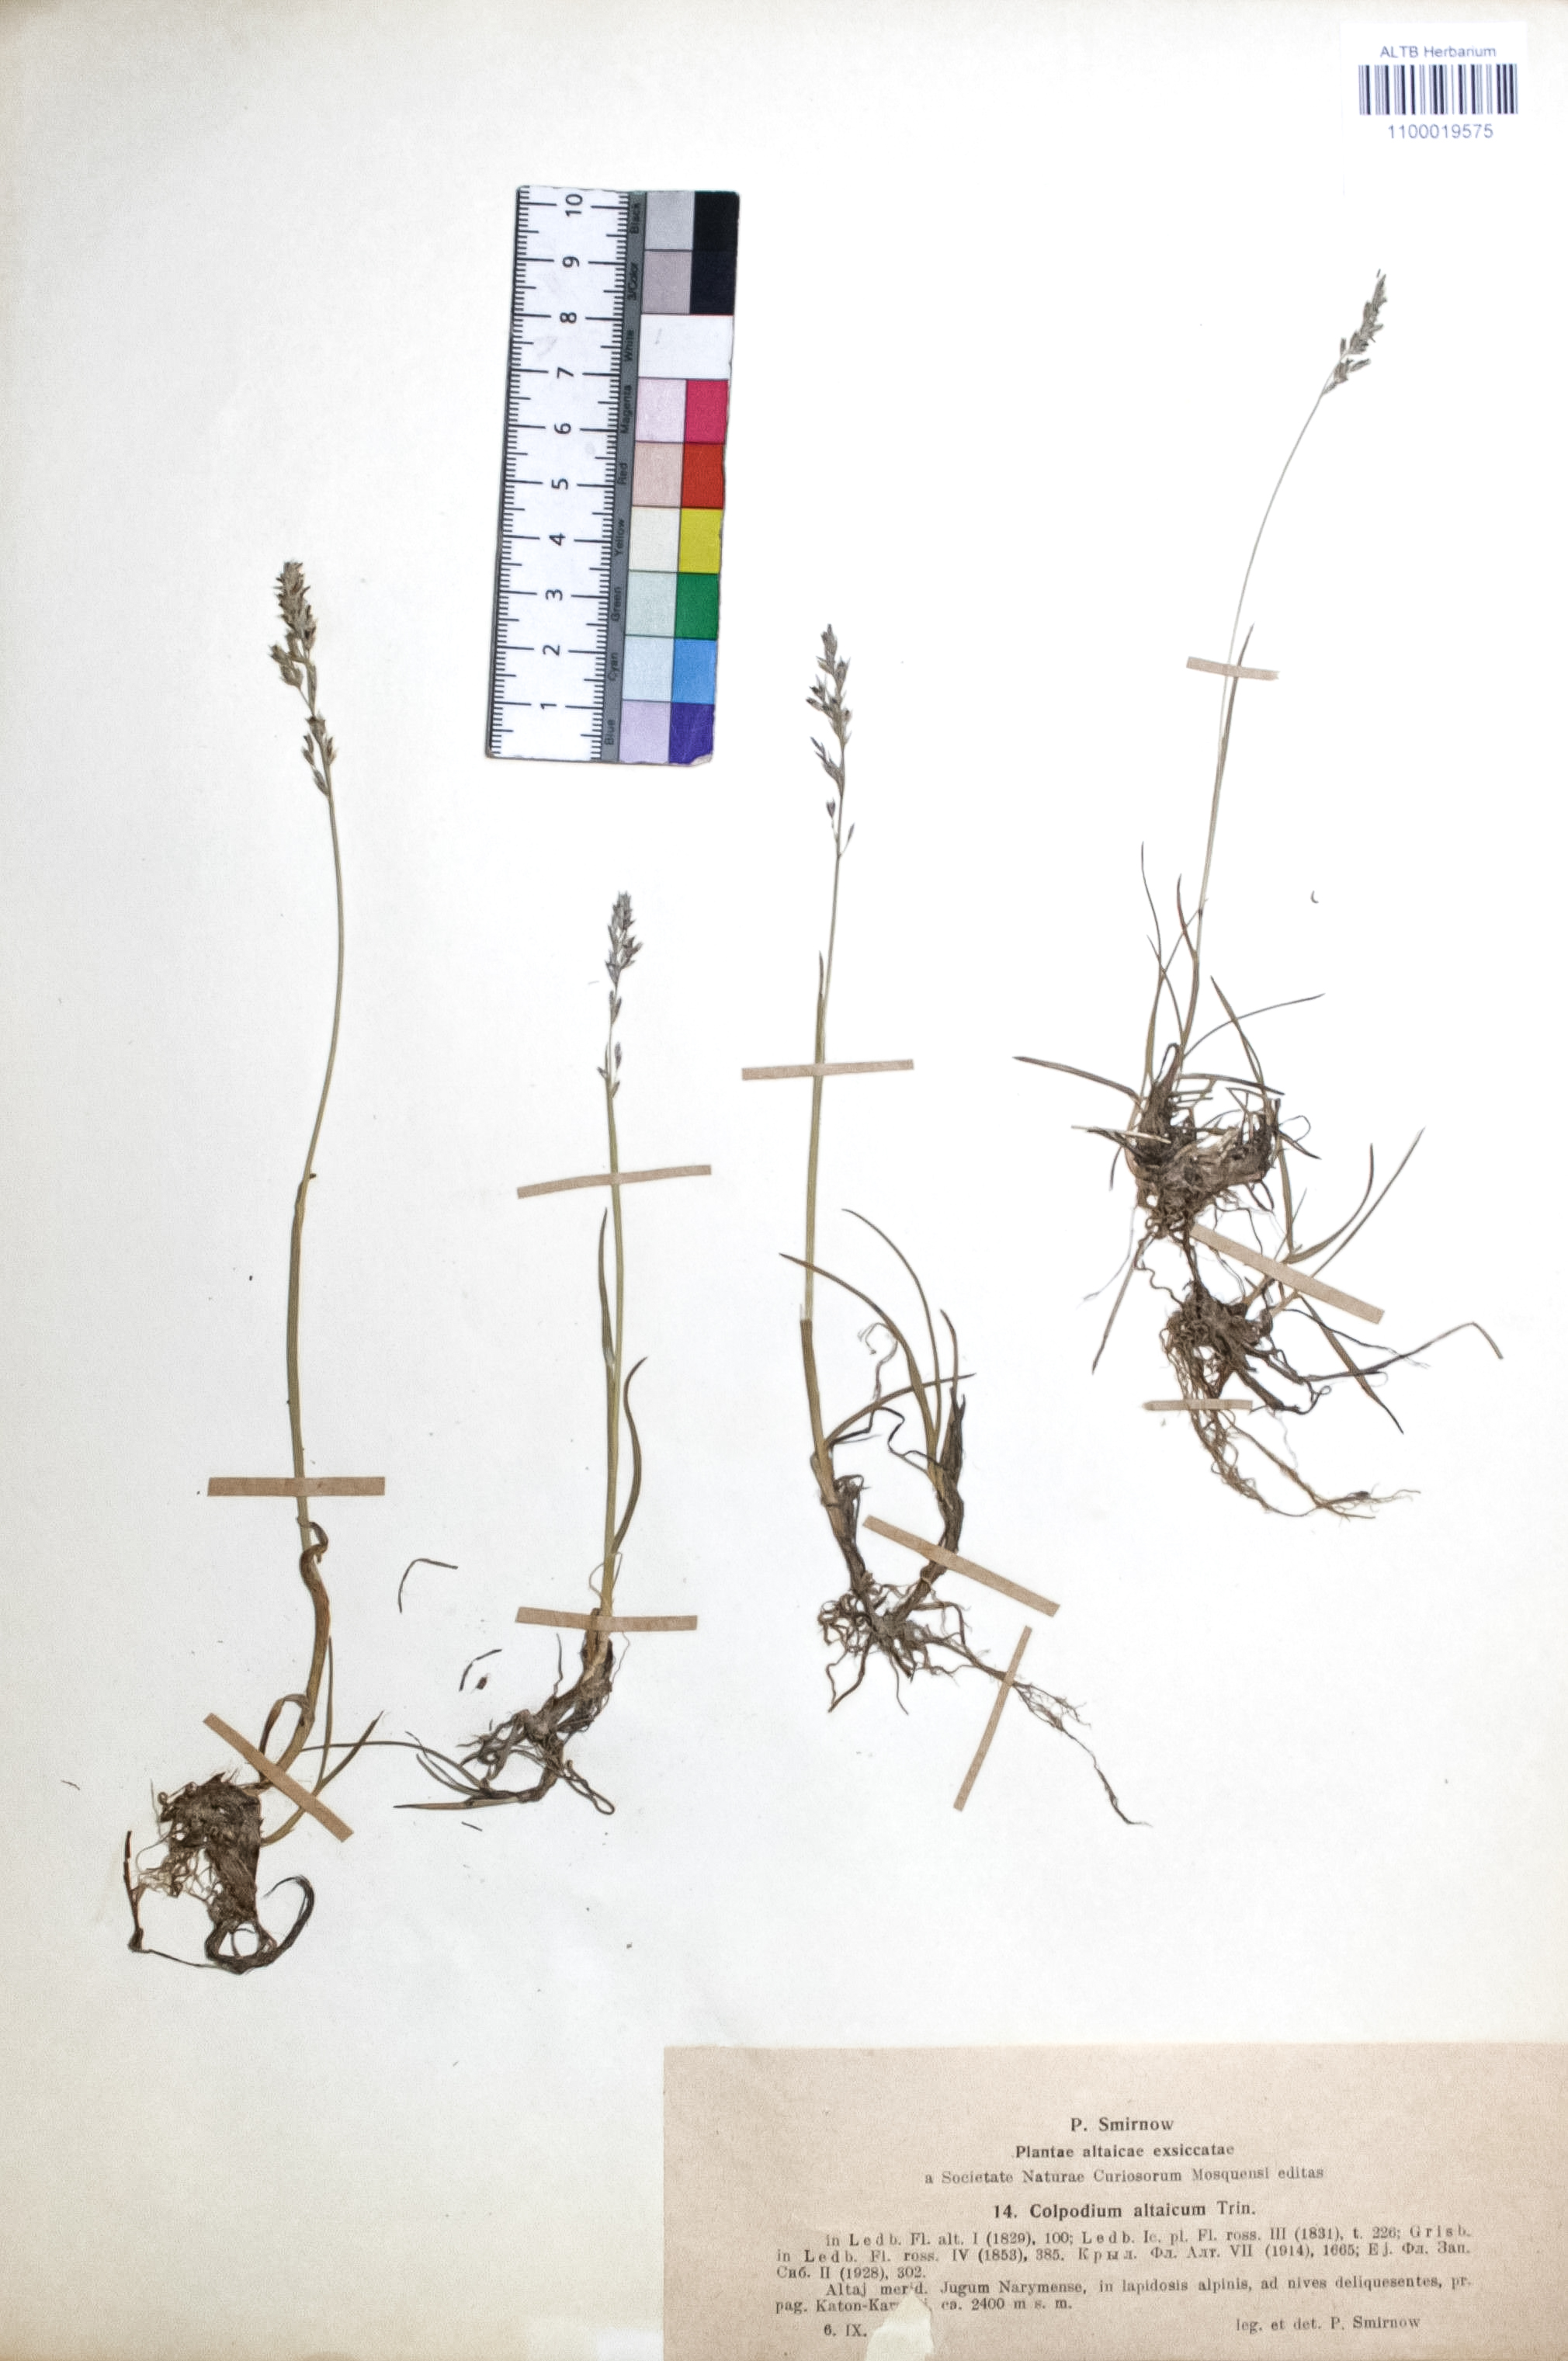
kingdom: Plantae
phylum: Tracheophyta
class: Liliopsida
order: Poales
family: Poaceae
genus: Paracolpodium
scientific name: Paracolpodium altaicum
